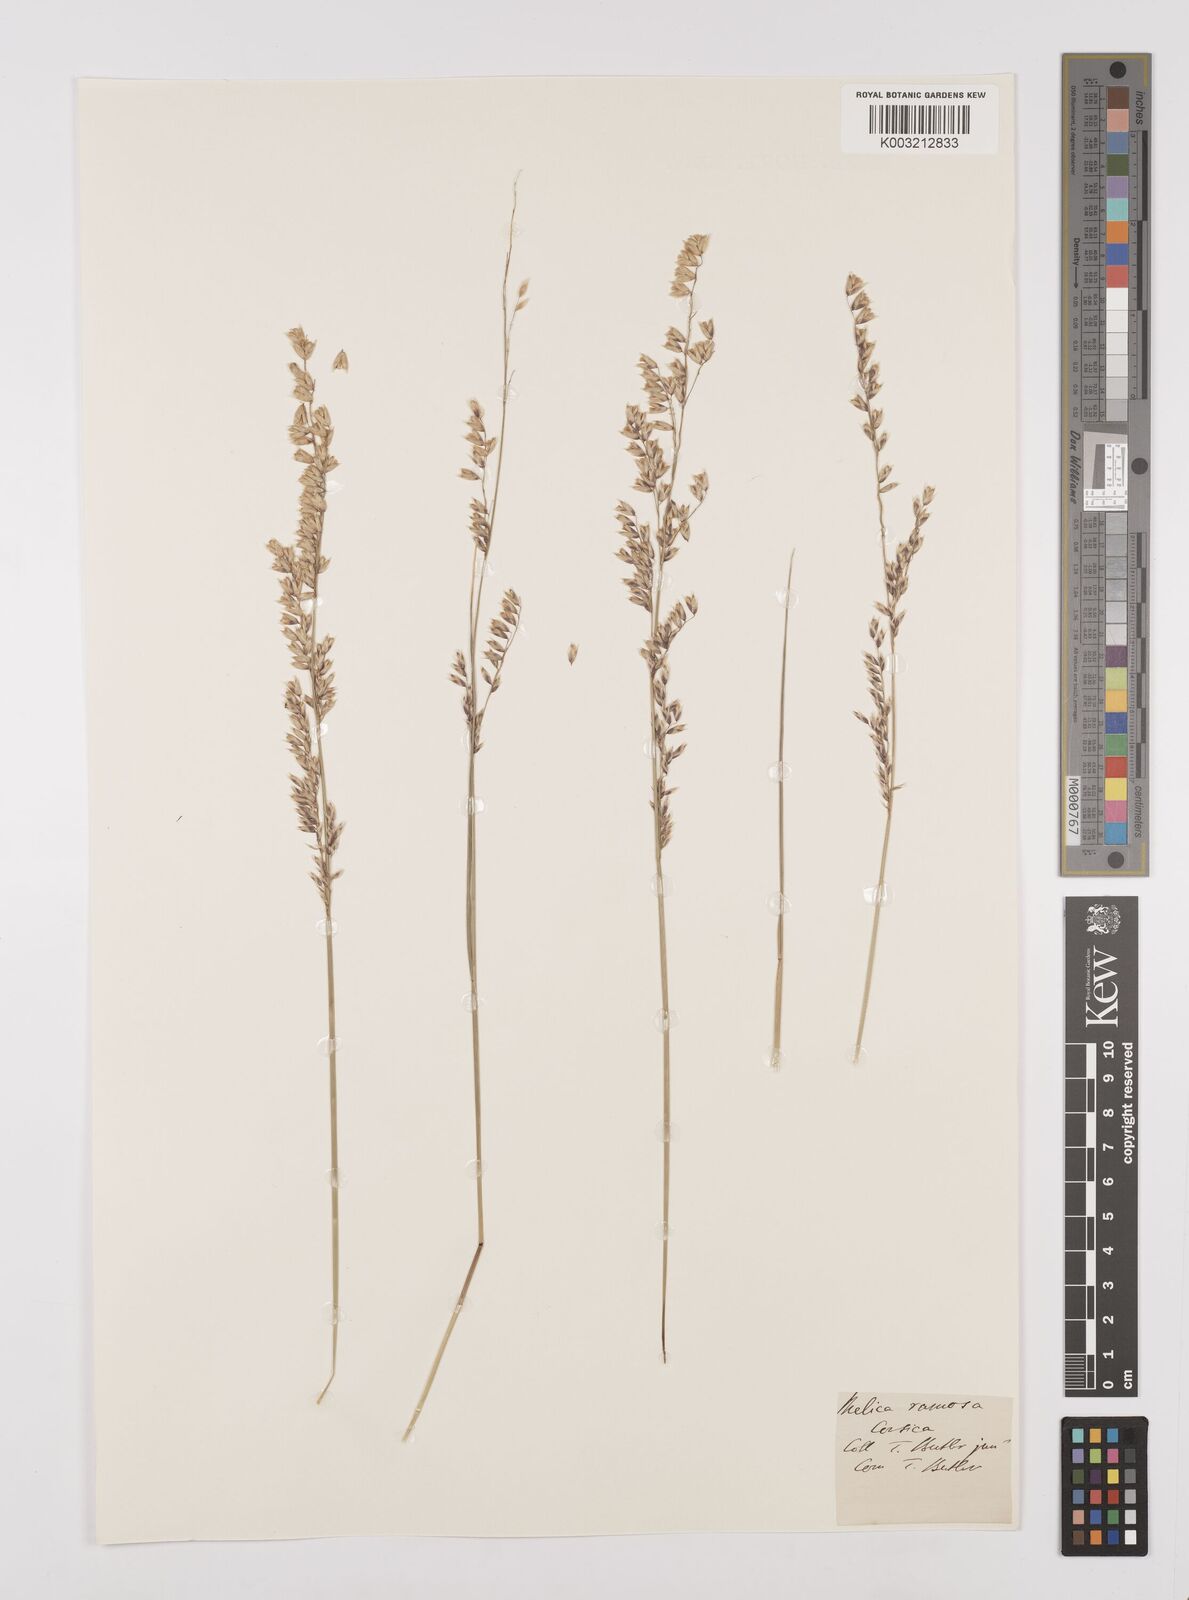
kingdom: Plantae
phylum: Tracheophyta
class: Liliopsida
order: Poales
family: Poaceae
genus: Melica
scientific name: Melica minuta
